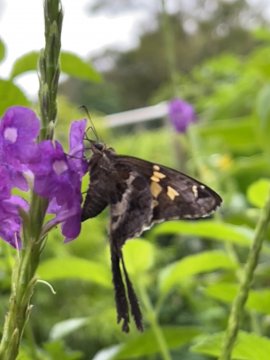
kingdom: Animalia
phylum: Arthropoda
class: Insecta
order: Lepidoptera
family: Hesperiidae
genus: Chioides
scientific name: Chioides zilpa
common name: Zilpa Longtail
